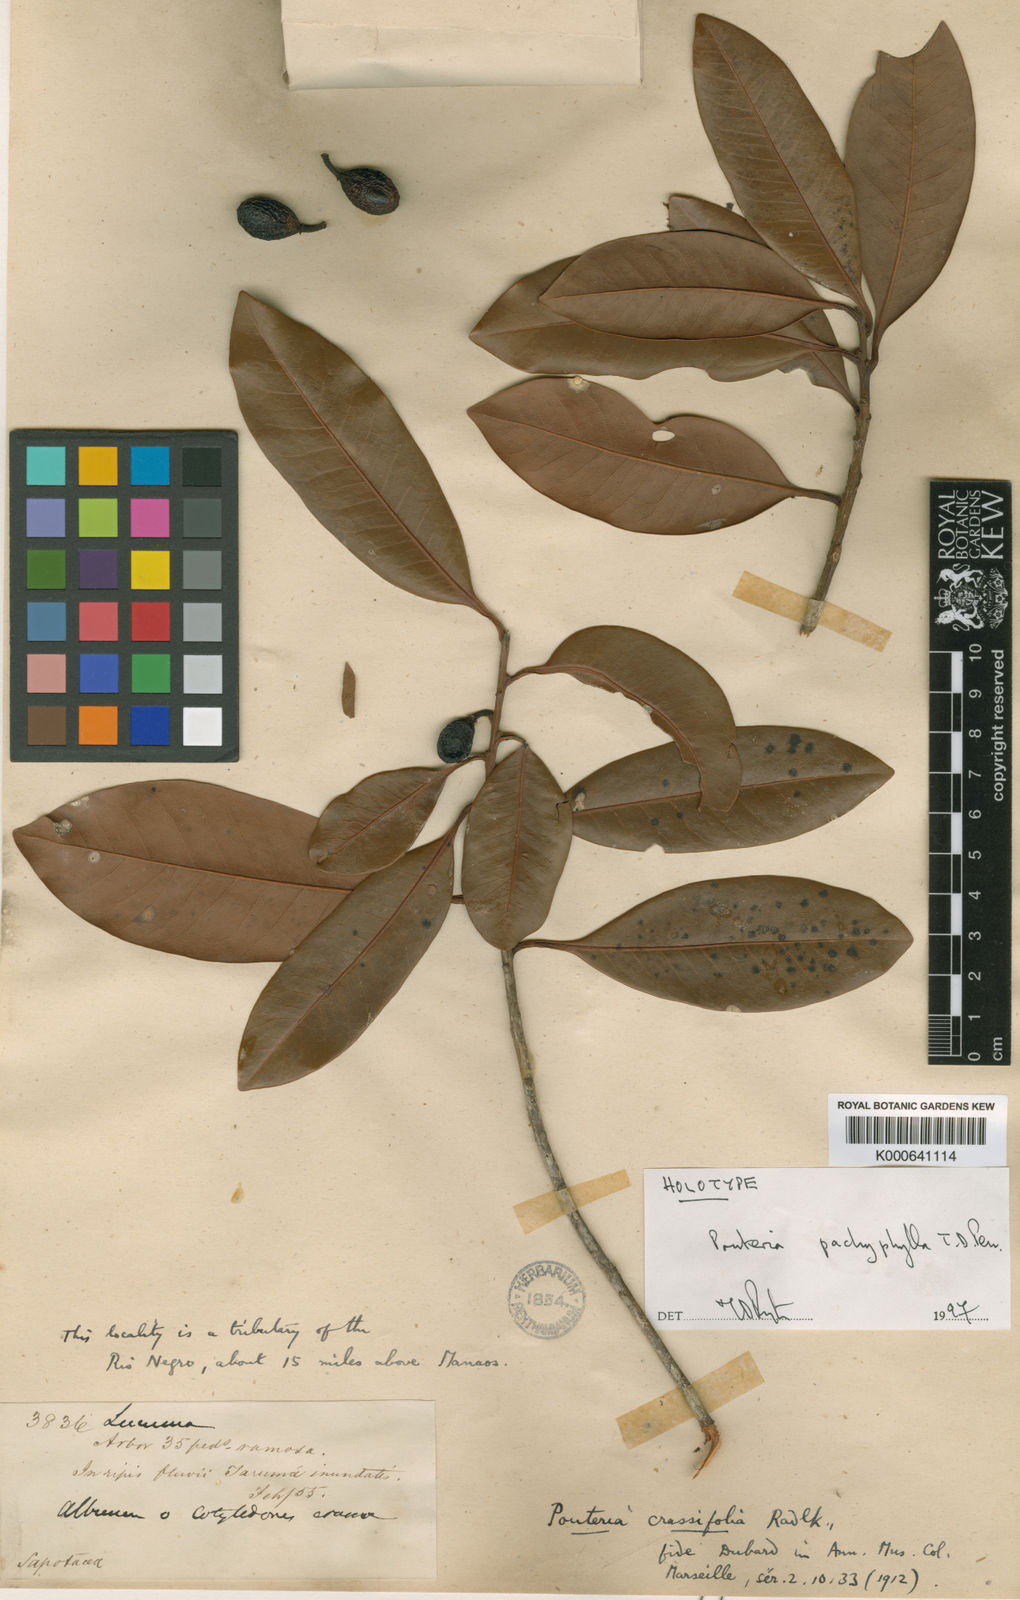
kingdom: Plantae
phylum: Tracheophyta
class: Magnoliopsida
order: Ericales
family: Sapotaceae
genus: Pouteria
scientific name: Pouteria pachyphylla
